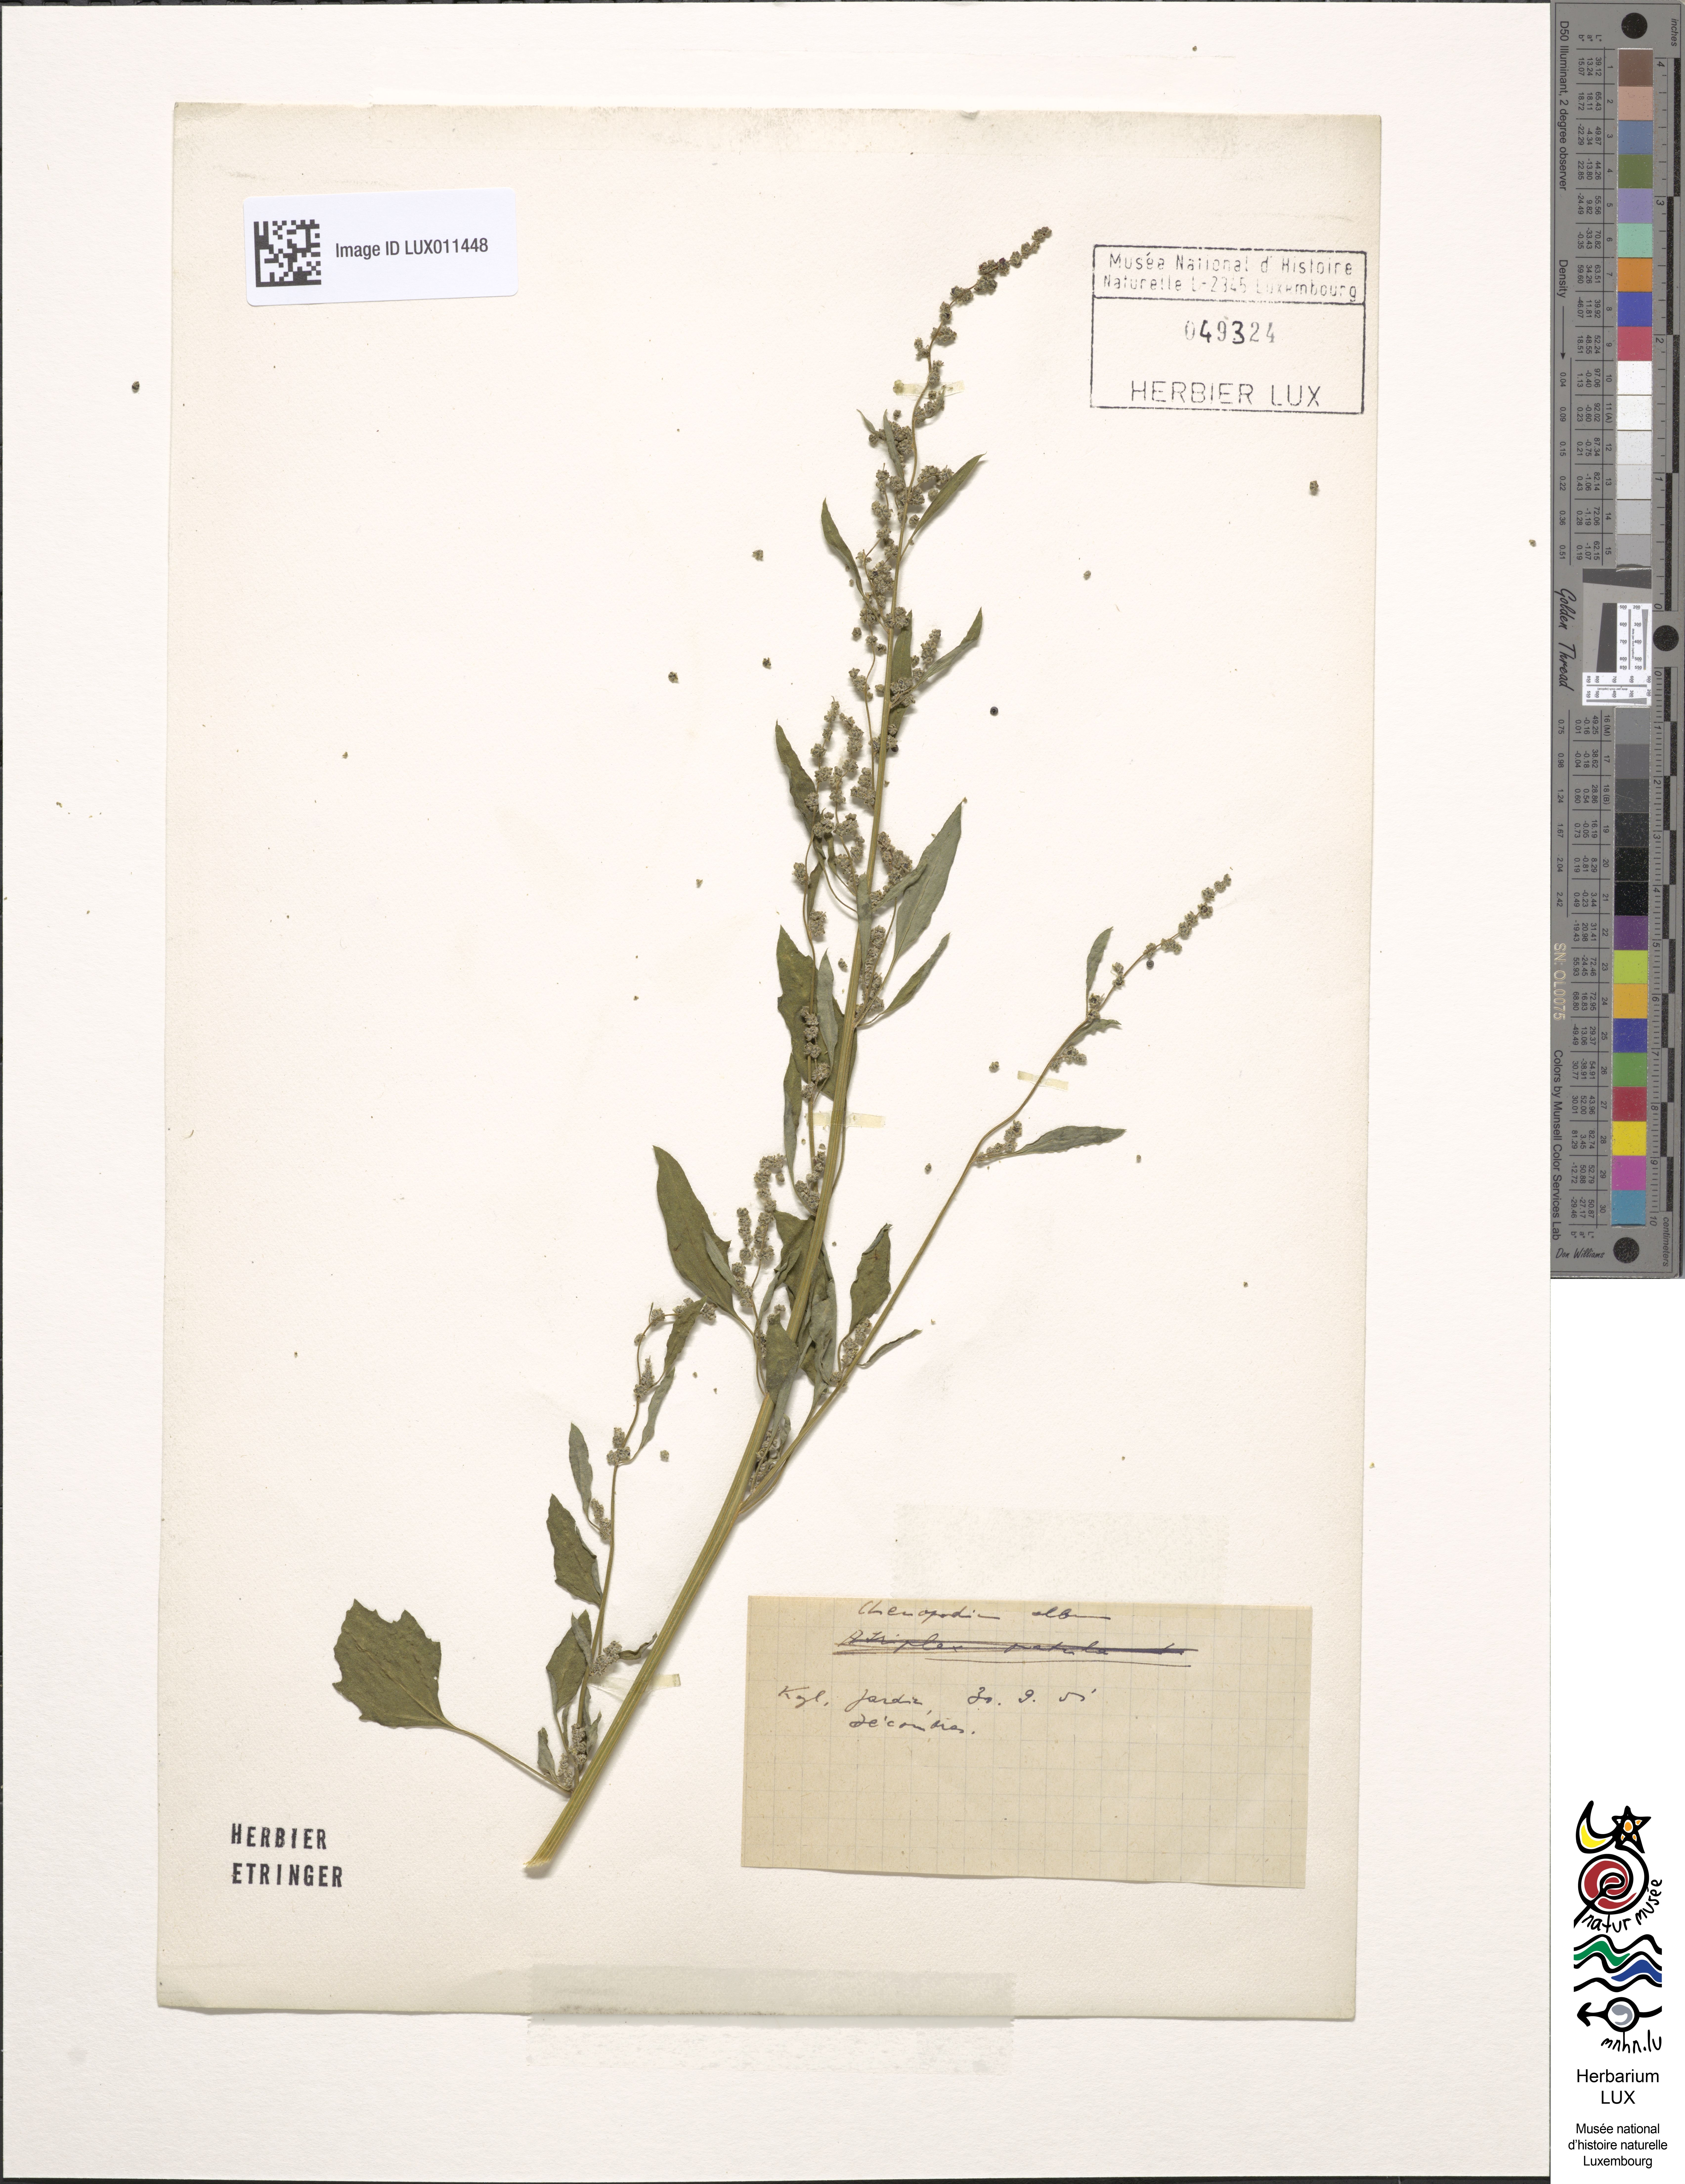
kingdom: Plantae
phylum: Tracheophyta
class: Magnoliopsida
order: Caryophyllales
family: Amaranthaceae
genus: Chenopodium
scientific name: Chenopodium album
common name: Fat-hen
